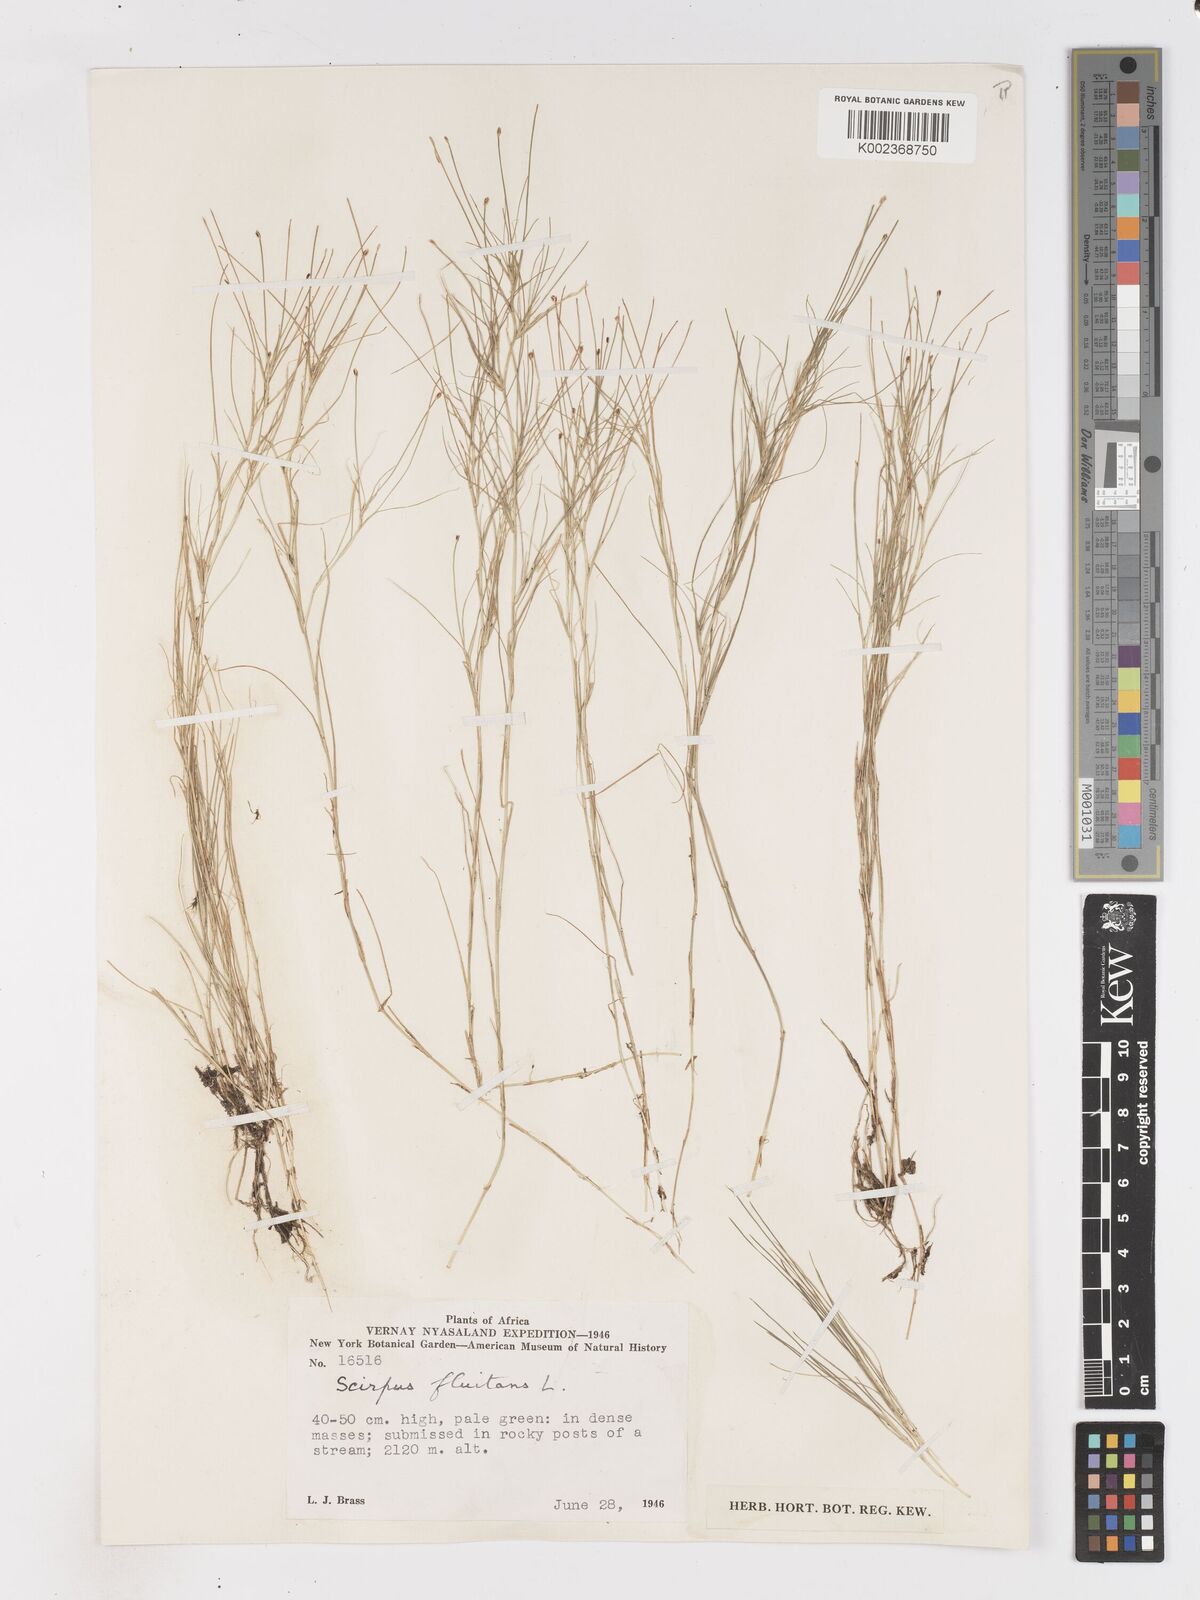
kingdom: Plantae
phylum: Tracheophyta
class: Liliopsida
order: Poales
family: Cyperaceae
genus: Isolepis
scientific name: Isolepis fluitans
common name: Floating club-rush
